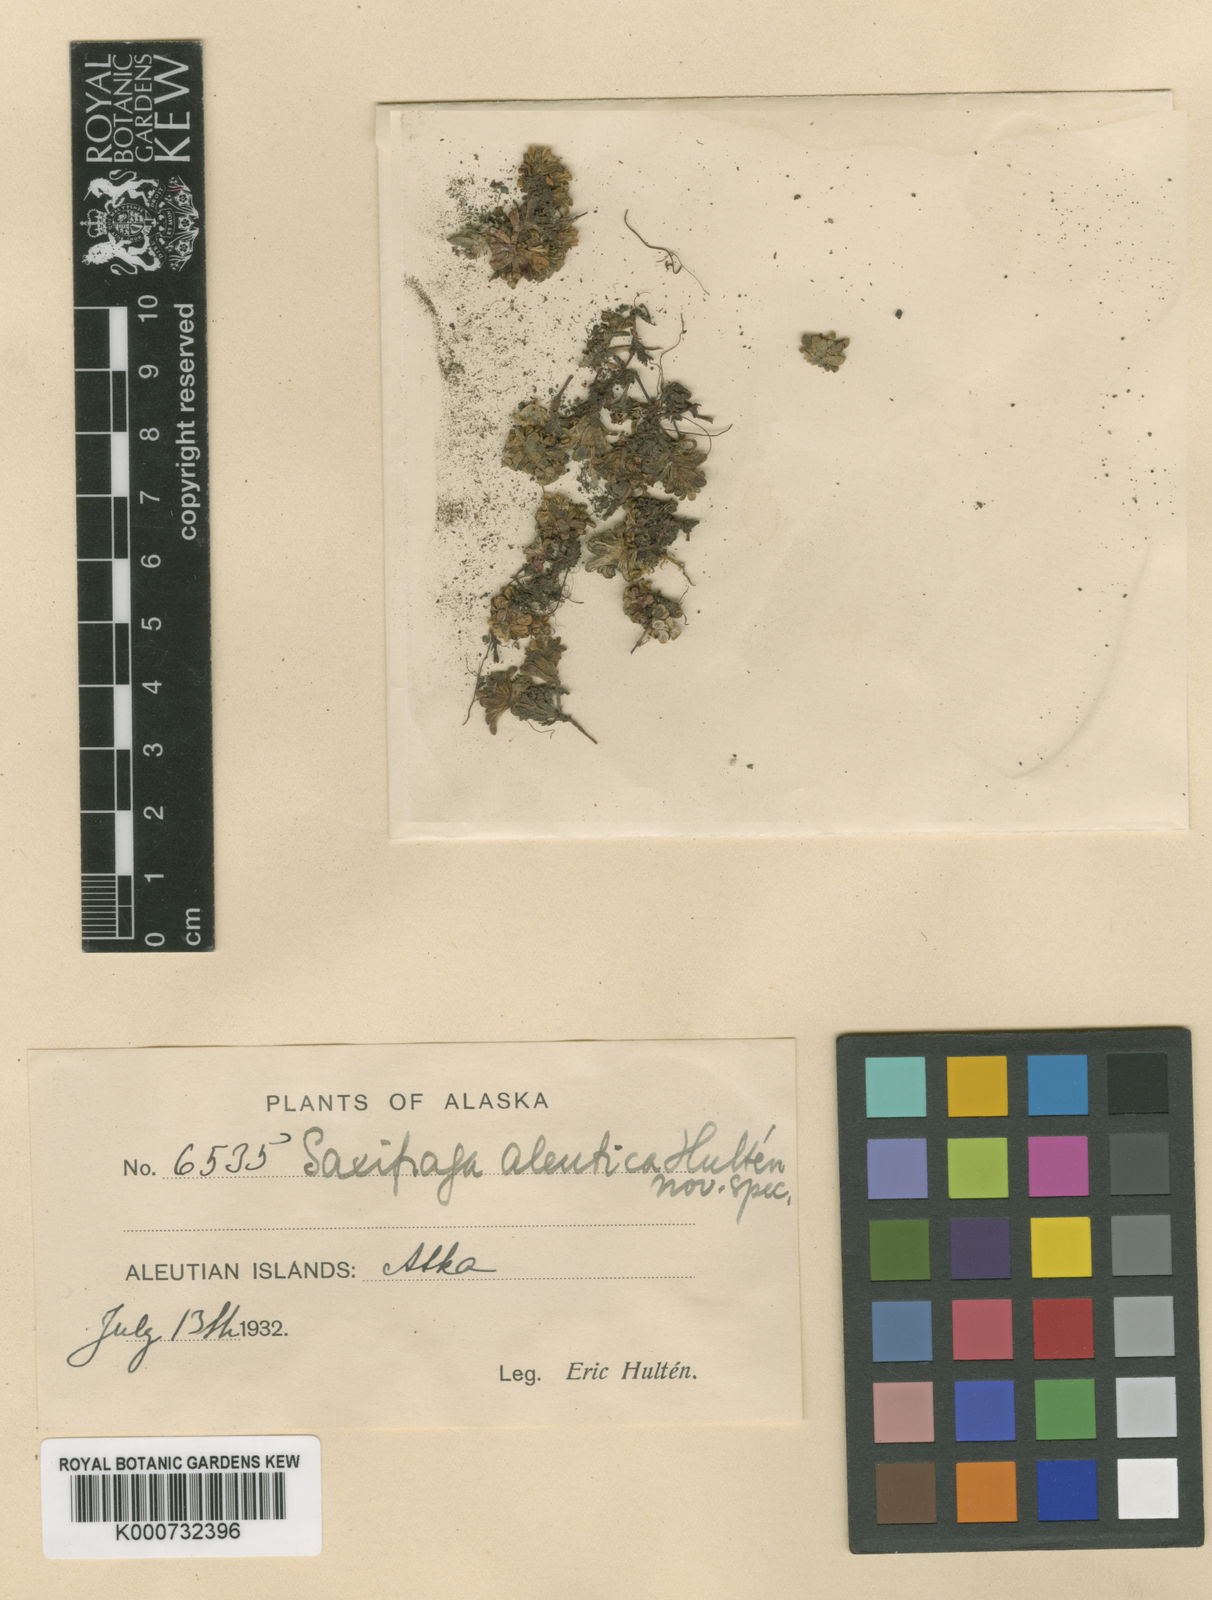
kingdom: Plantae
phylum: Tracheophyta
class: Magnoliopsida
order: Saxifragales
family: Saxifragaceae
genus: Saxifraga
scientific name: Saxifraga
